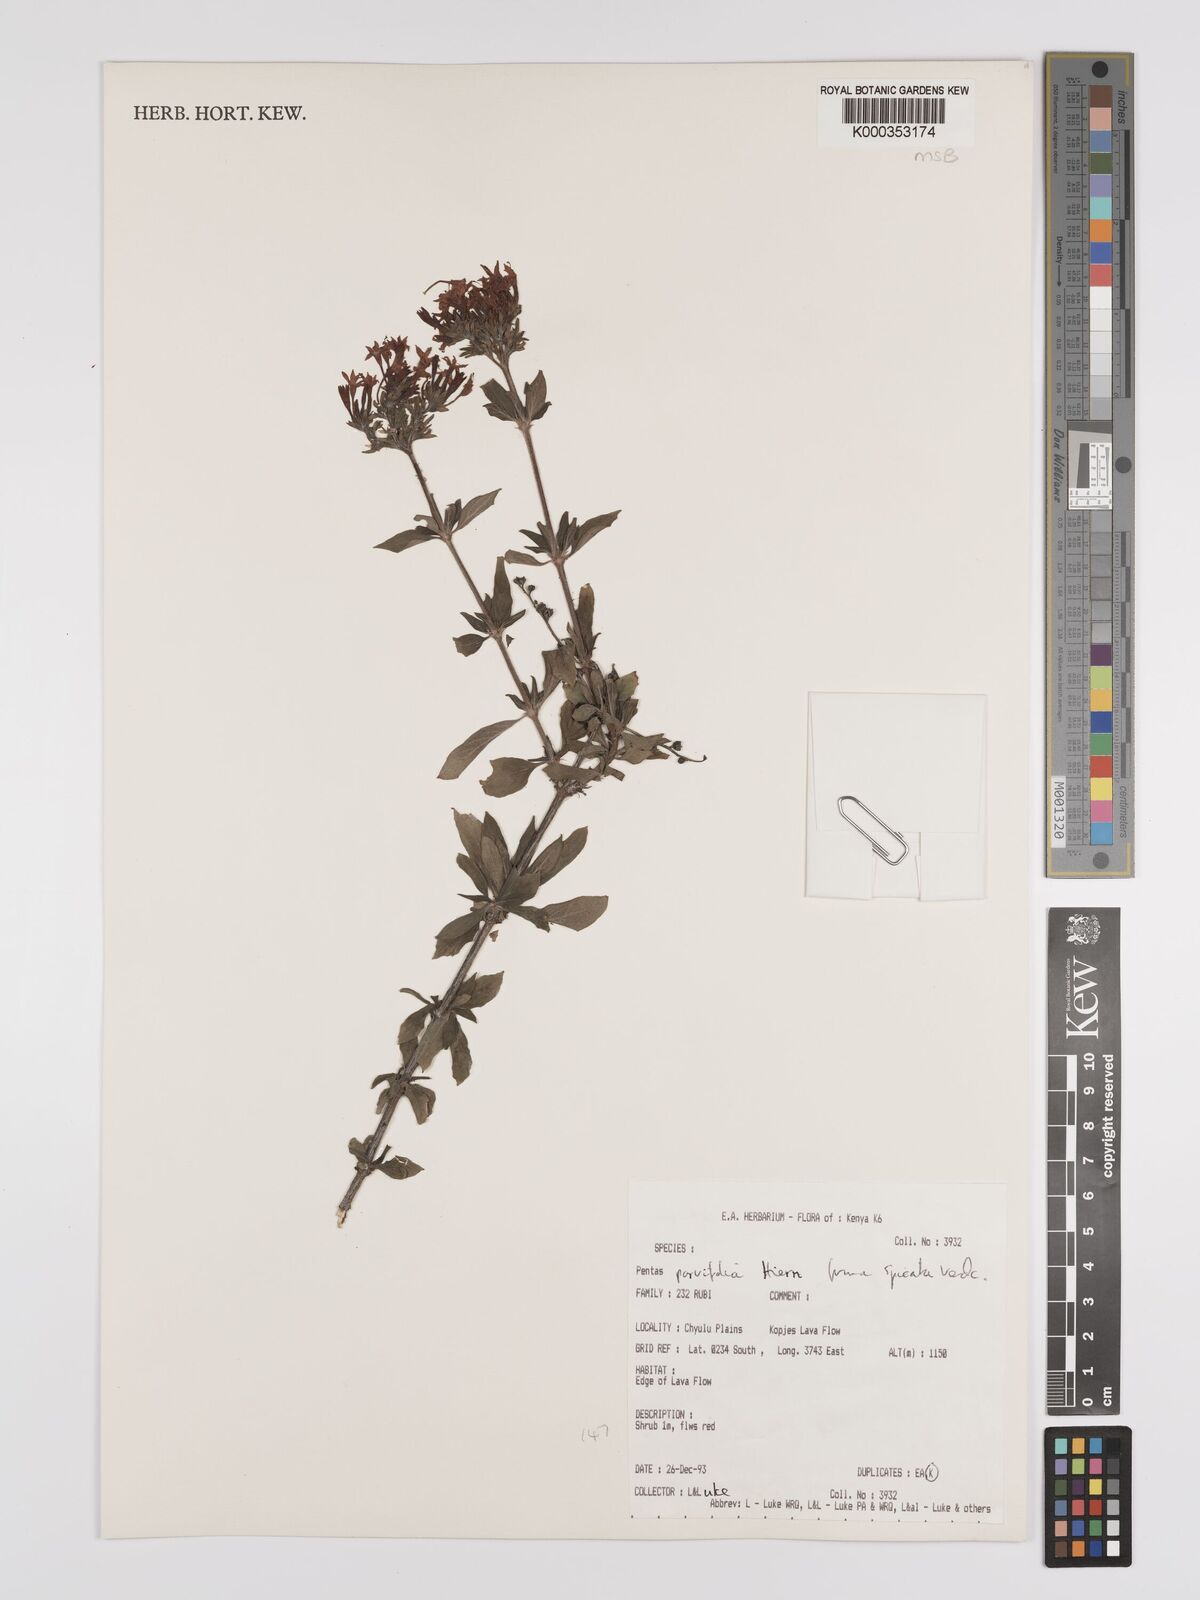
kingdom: Plantae
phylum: Tracheophyta
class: Magnoliopsida
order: Gentianales
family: Rubiaceae
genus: Rhodopentas
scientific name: Rhodopentas parvifolia
